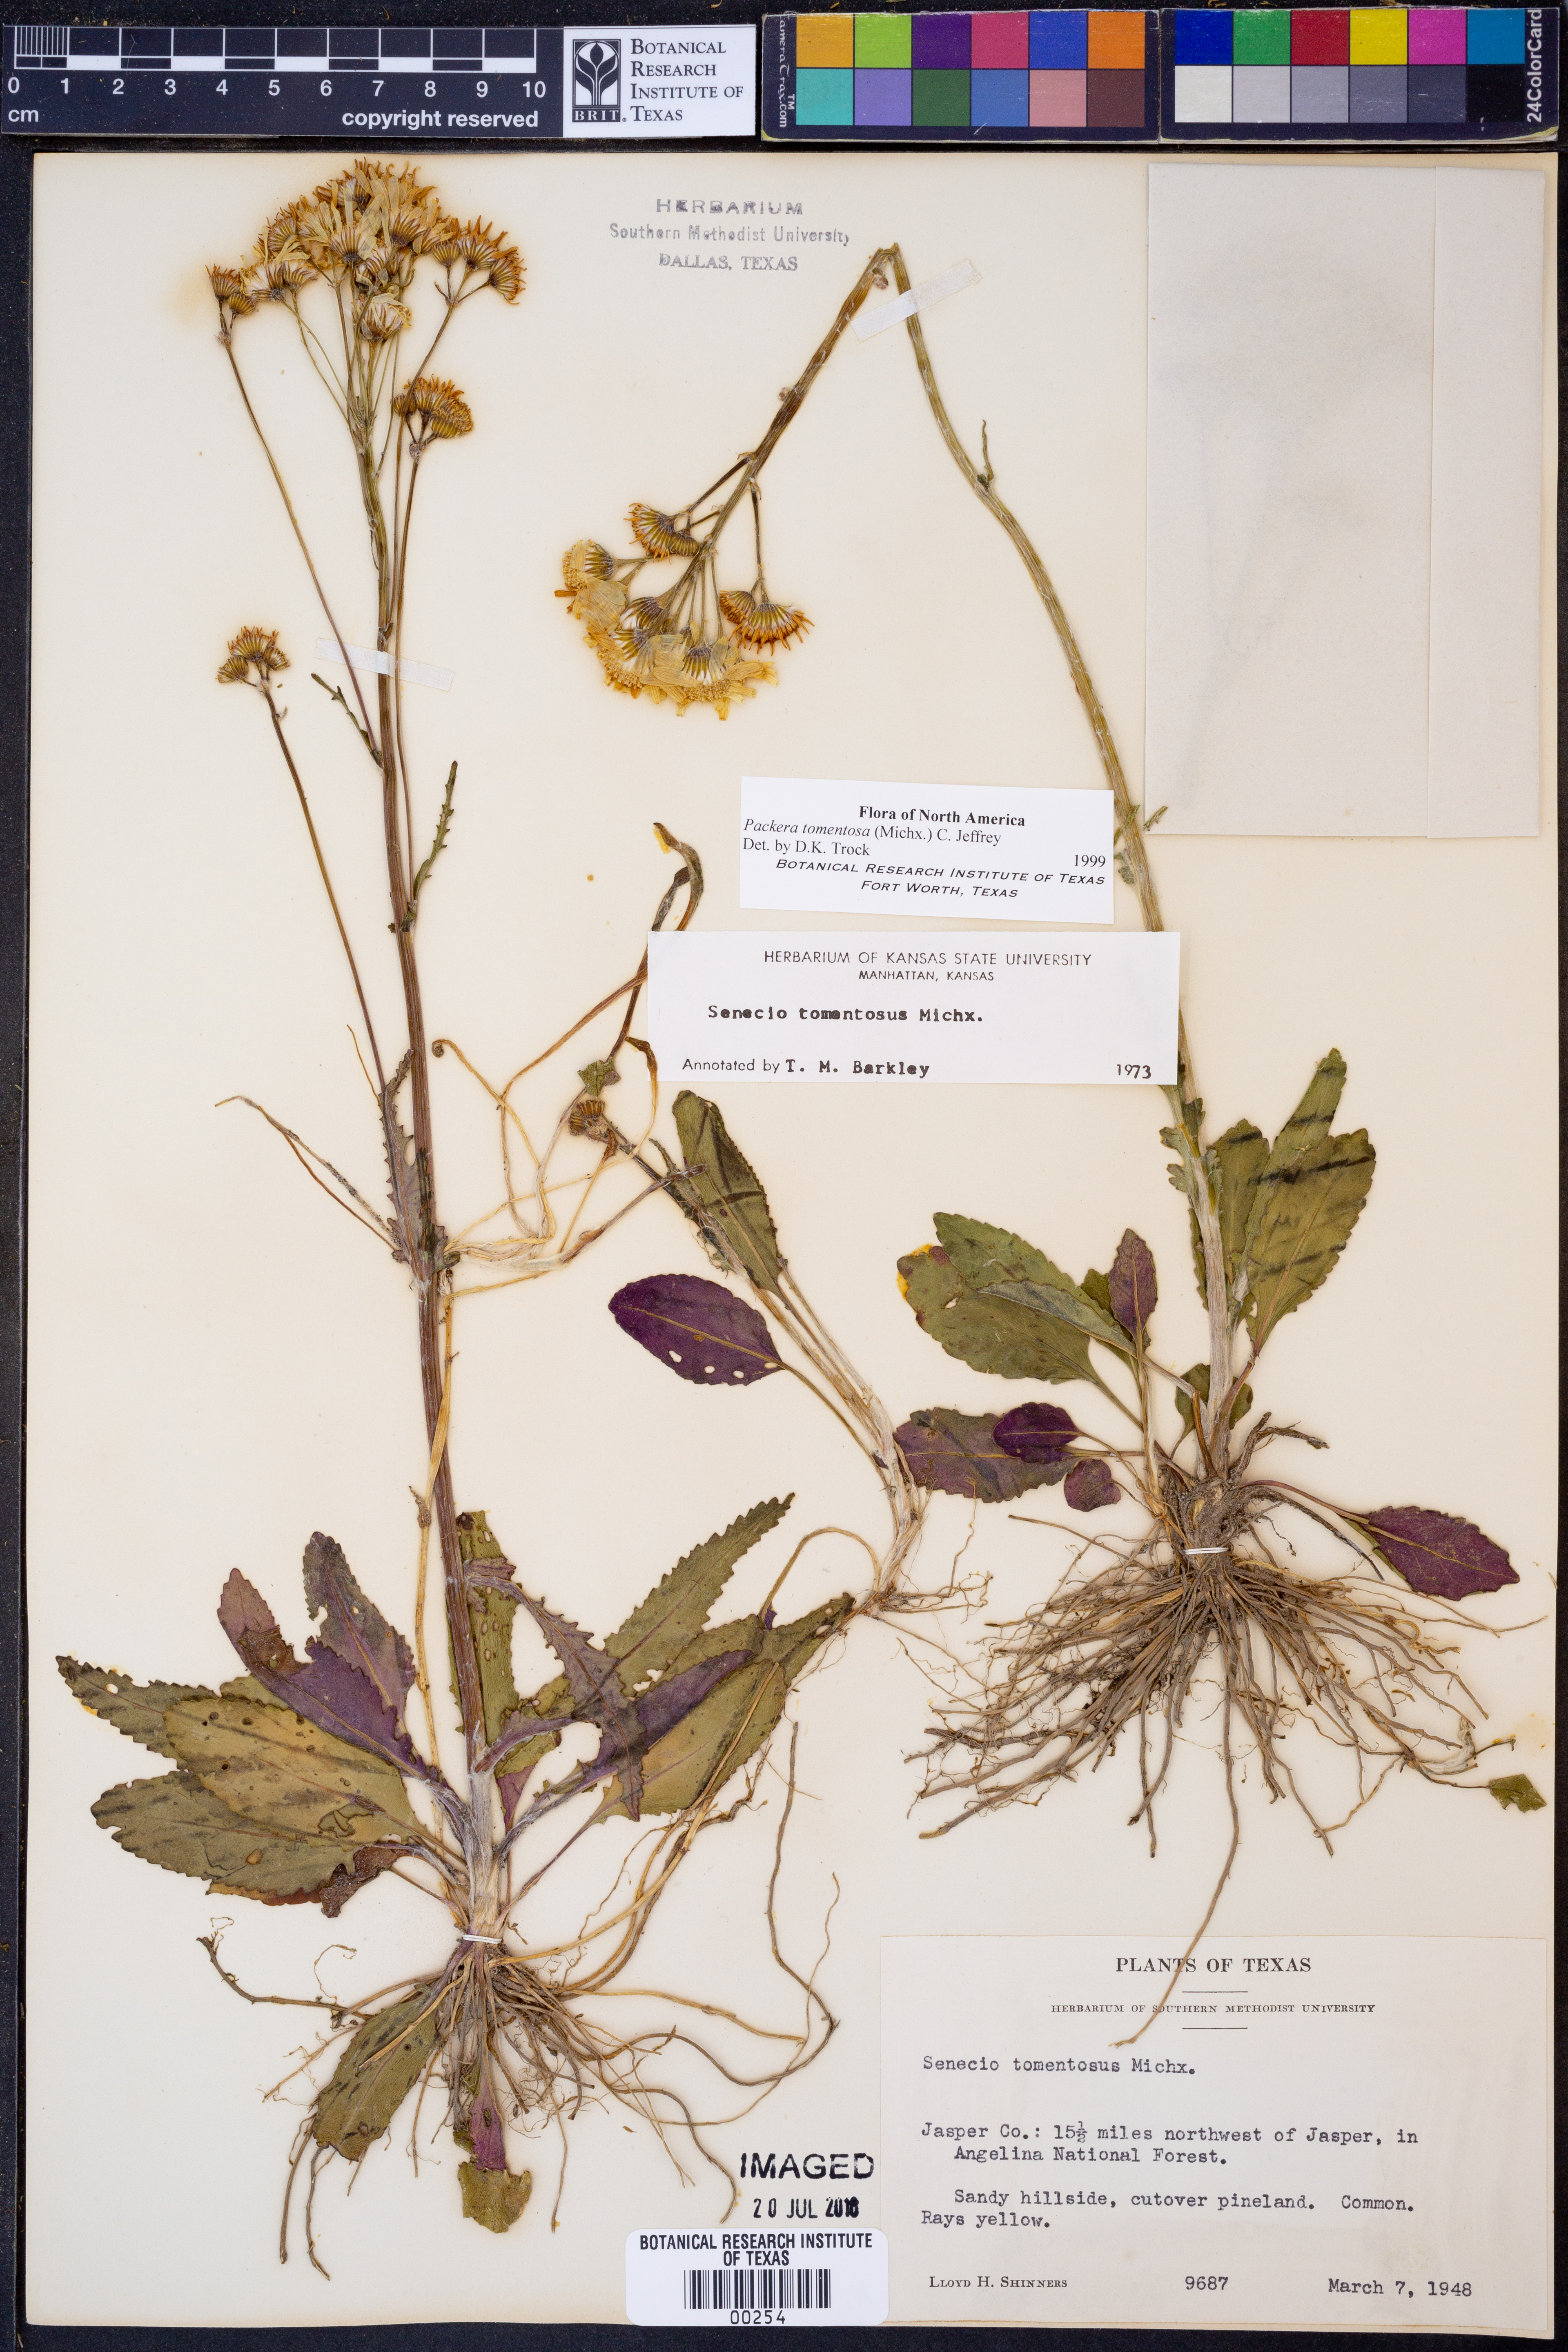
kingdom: Plantae
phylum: Tracheophyta
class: Magnoliopsida
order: Asterales
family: Asteraceae
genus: Packera
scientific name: Packera dubia
